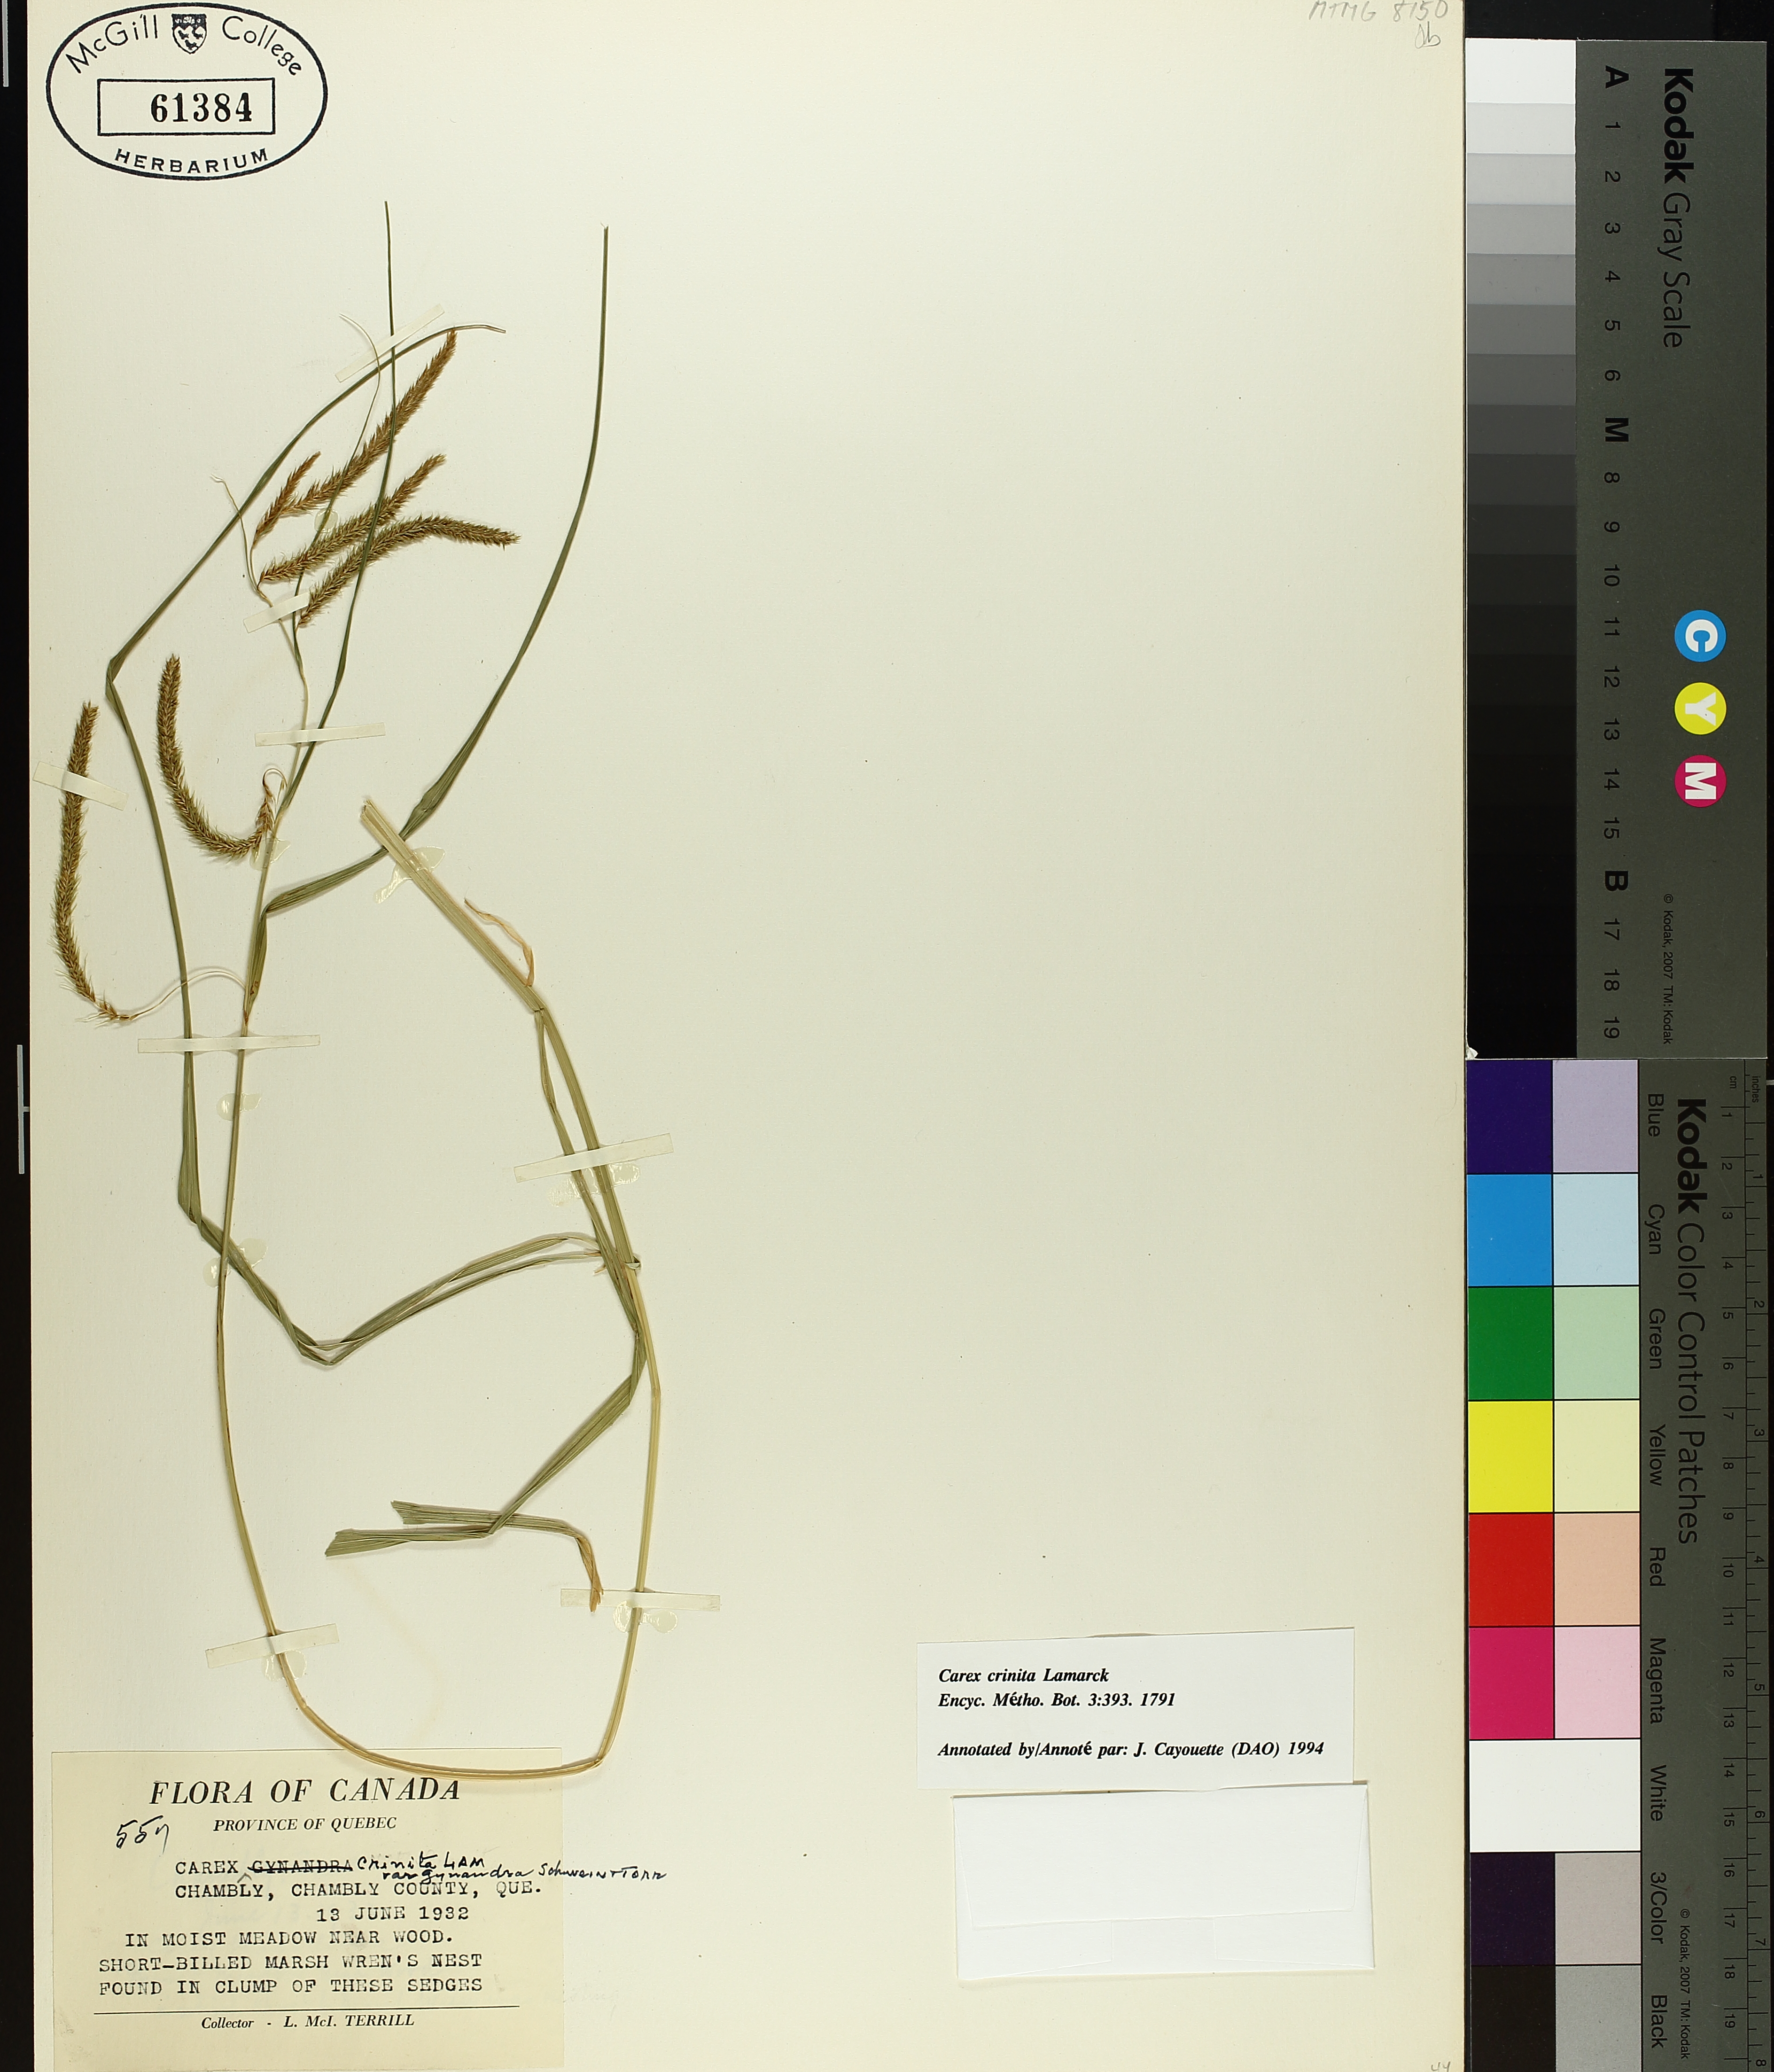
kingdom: Plantae
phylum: Tracheophyta
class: Liliopsida
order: Poales
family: Cyperaceae
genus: Carex
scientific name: Carex gynandra
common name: Nodding sedge
